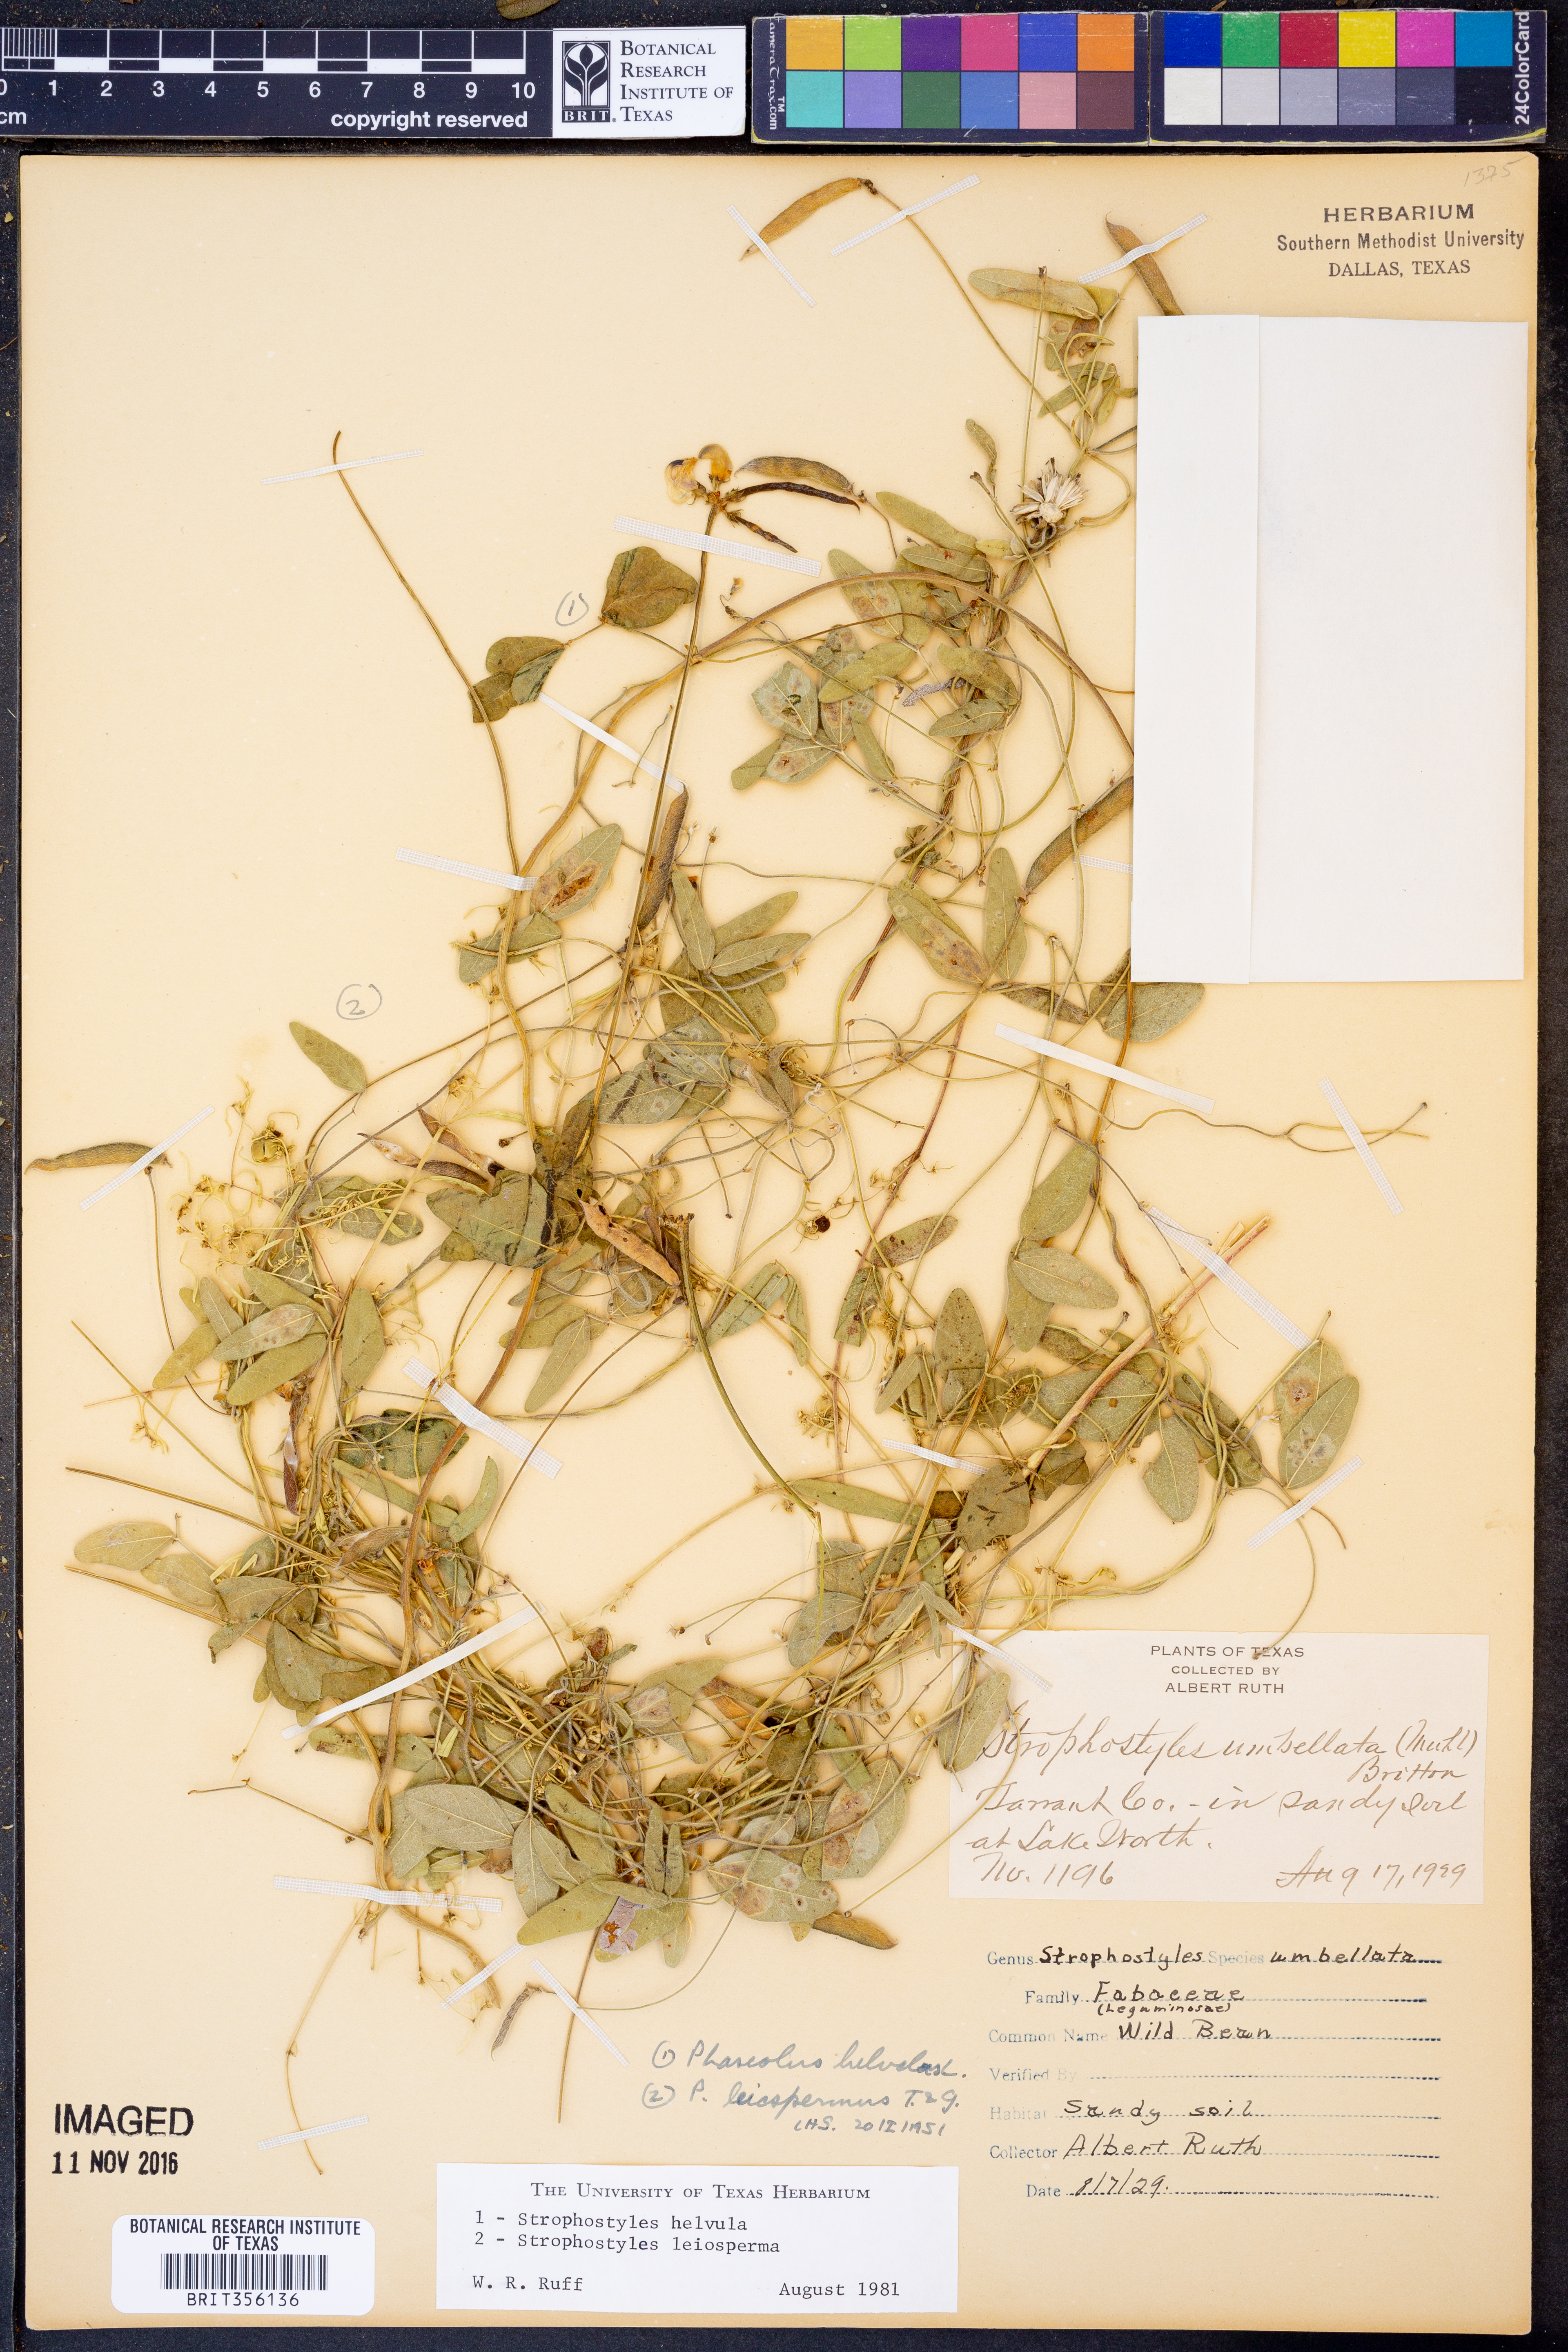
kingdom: Plantae
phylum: Tracheophyta
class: Magnoliopsida
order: Fabales
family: Fabaceae
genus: Strophostyles
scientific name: Strophostyles helvula
